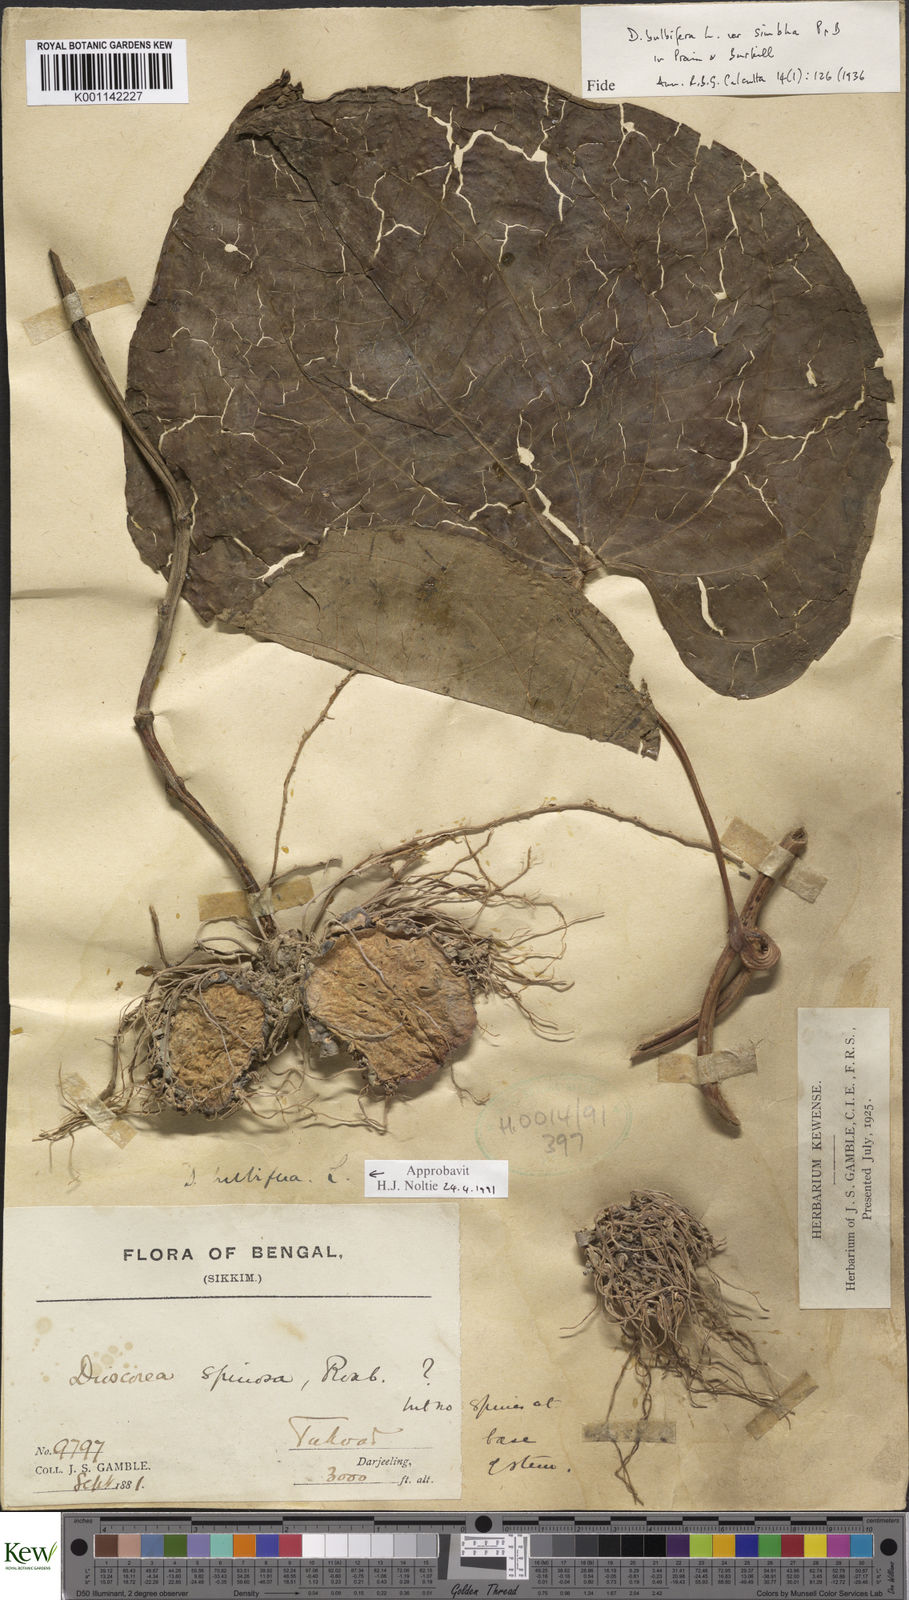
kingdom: Plantae
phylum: Tracheophyta
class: Liliopsida
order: Dioscoreales
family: Dioscoreaceae
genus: Dioscorea
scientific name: Dioscorea bulbifera
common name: Air yam
